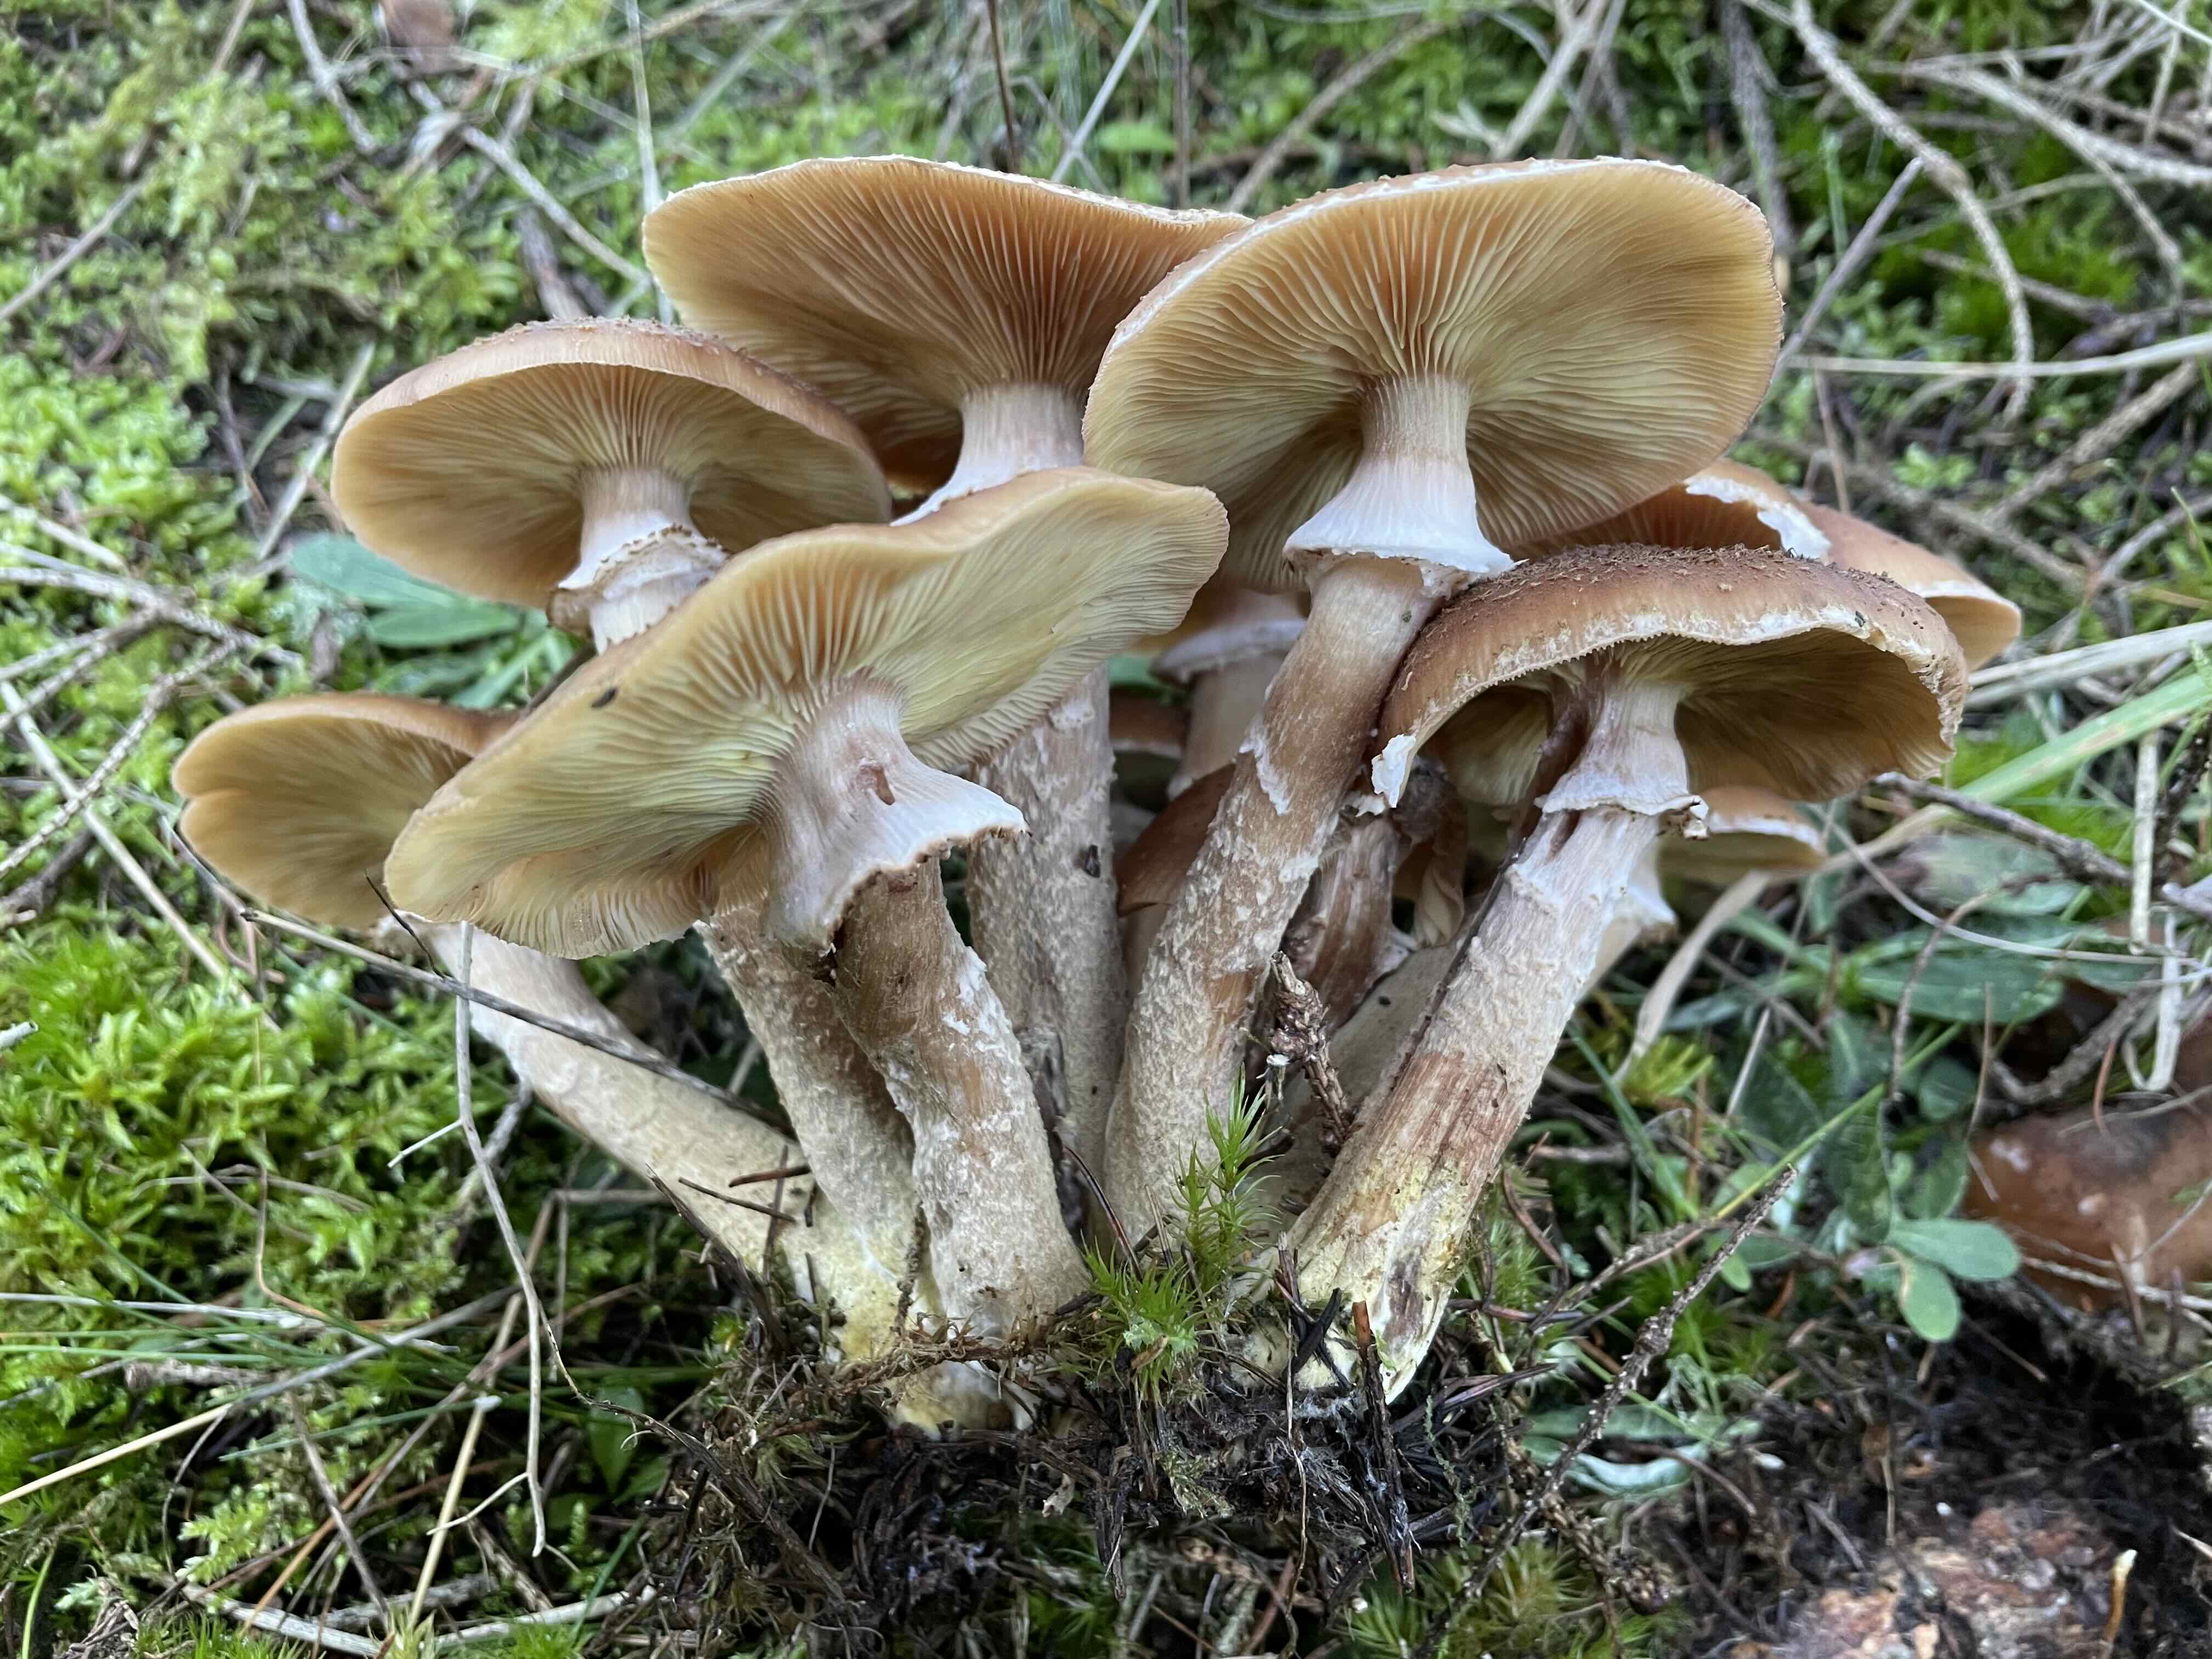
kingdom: Fungi
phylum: Basidiomycota
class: Agaricomycetes
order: Agaricales
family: Physalacriaceae
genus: Armillaria
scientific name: Armillaria ostoyae
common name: mørk honningsvamp
